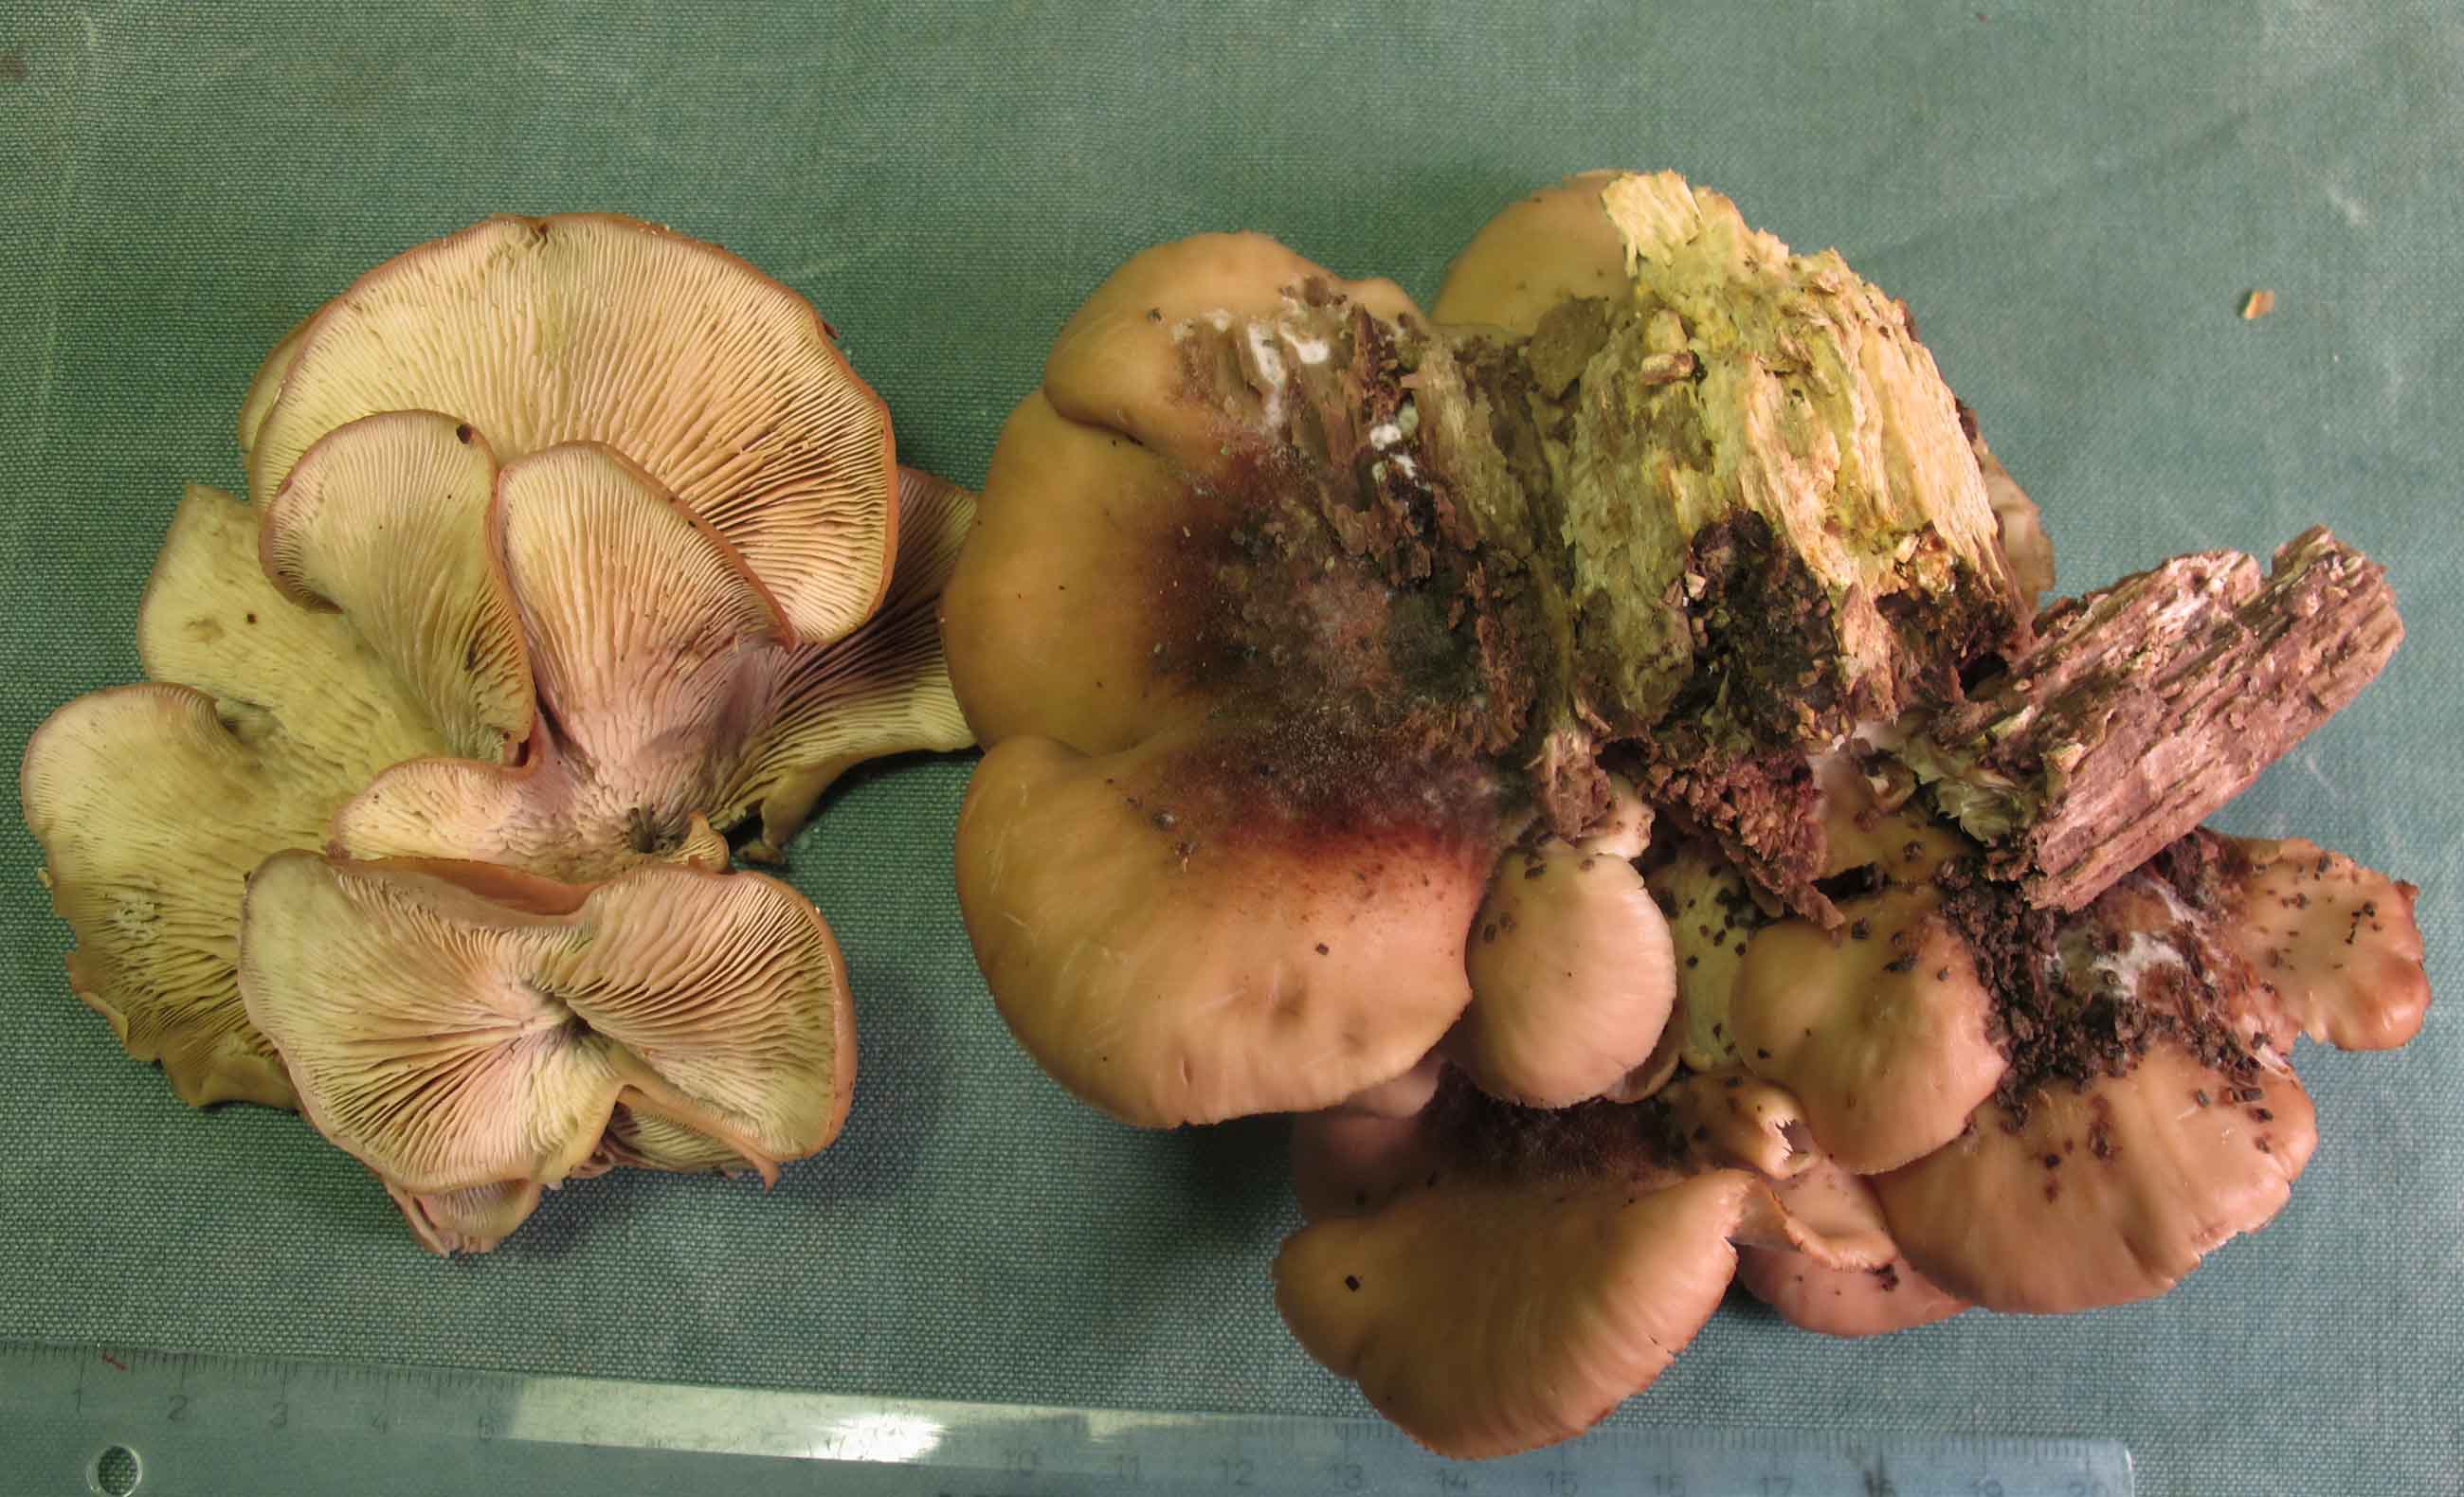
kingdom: Fungi
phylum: Basidiomycota
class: Agaricomycetes
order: Russulales
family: Auriscalpiaceae
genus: Lentinellus
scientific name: Lentinellus ursinus
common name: børstehåret savbladhat
